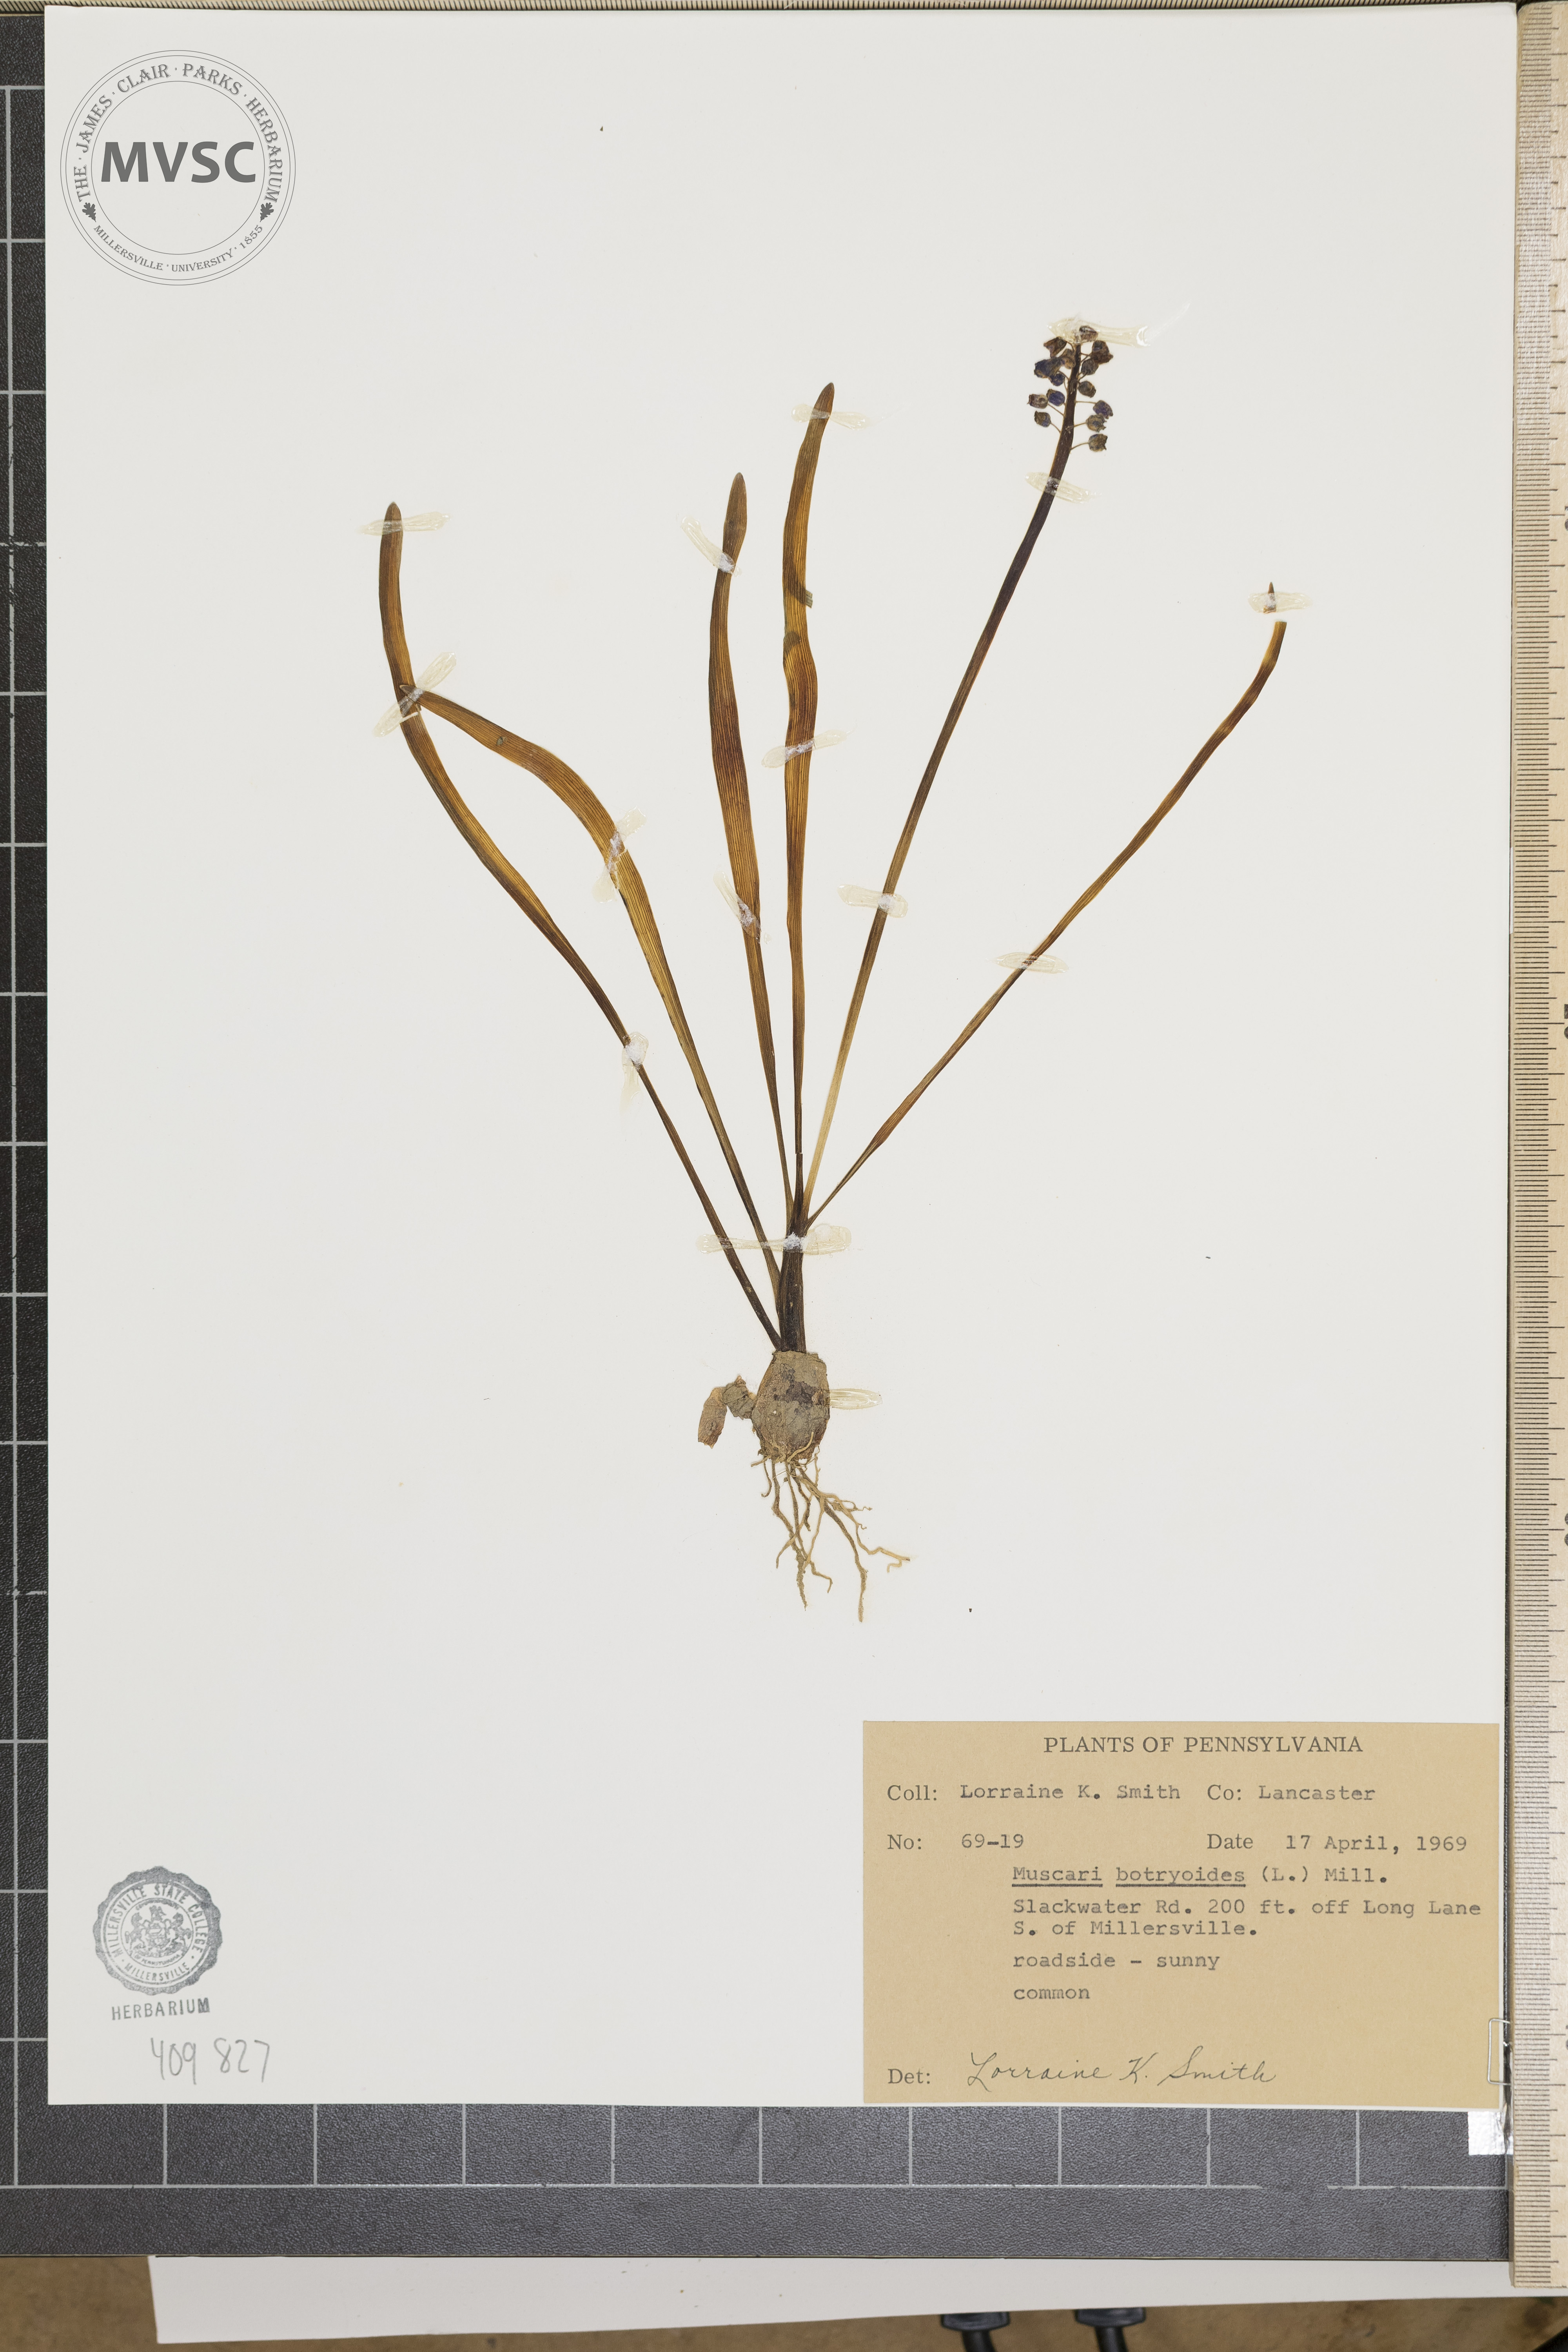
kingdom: Plantae
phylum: Tracheophyta
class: Liliopsida
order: Asparagales
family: Asparagaceae
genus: Muscari
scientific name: Muscari botryoides
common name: Compact grape-hyacinth
